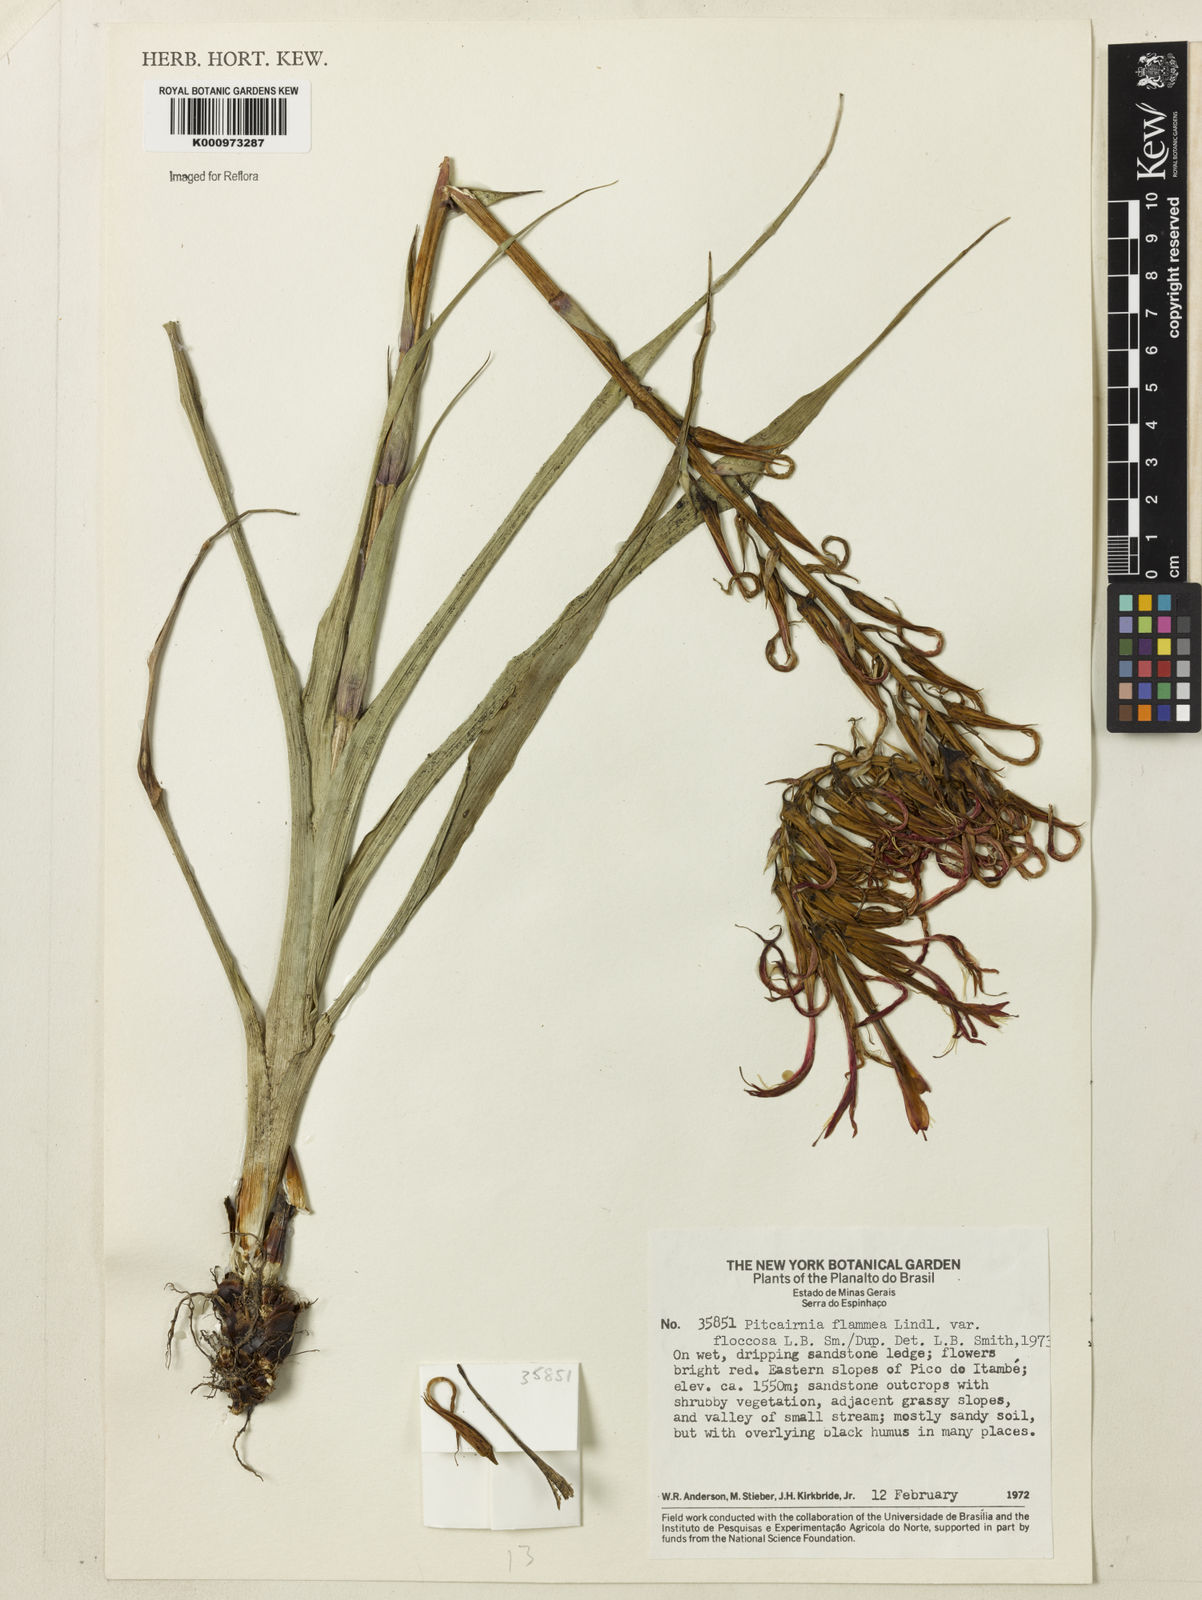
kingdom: Plantae
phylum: Tracheophyta
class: Liliopsida
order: Poales
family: Bromeliaceae
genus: Pitcairnia
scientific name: Pitcairnia flammea
